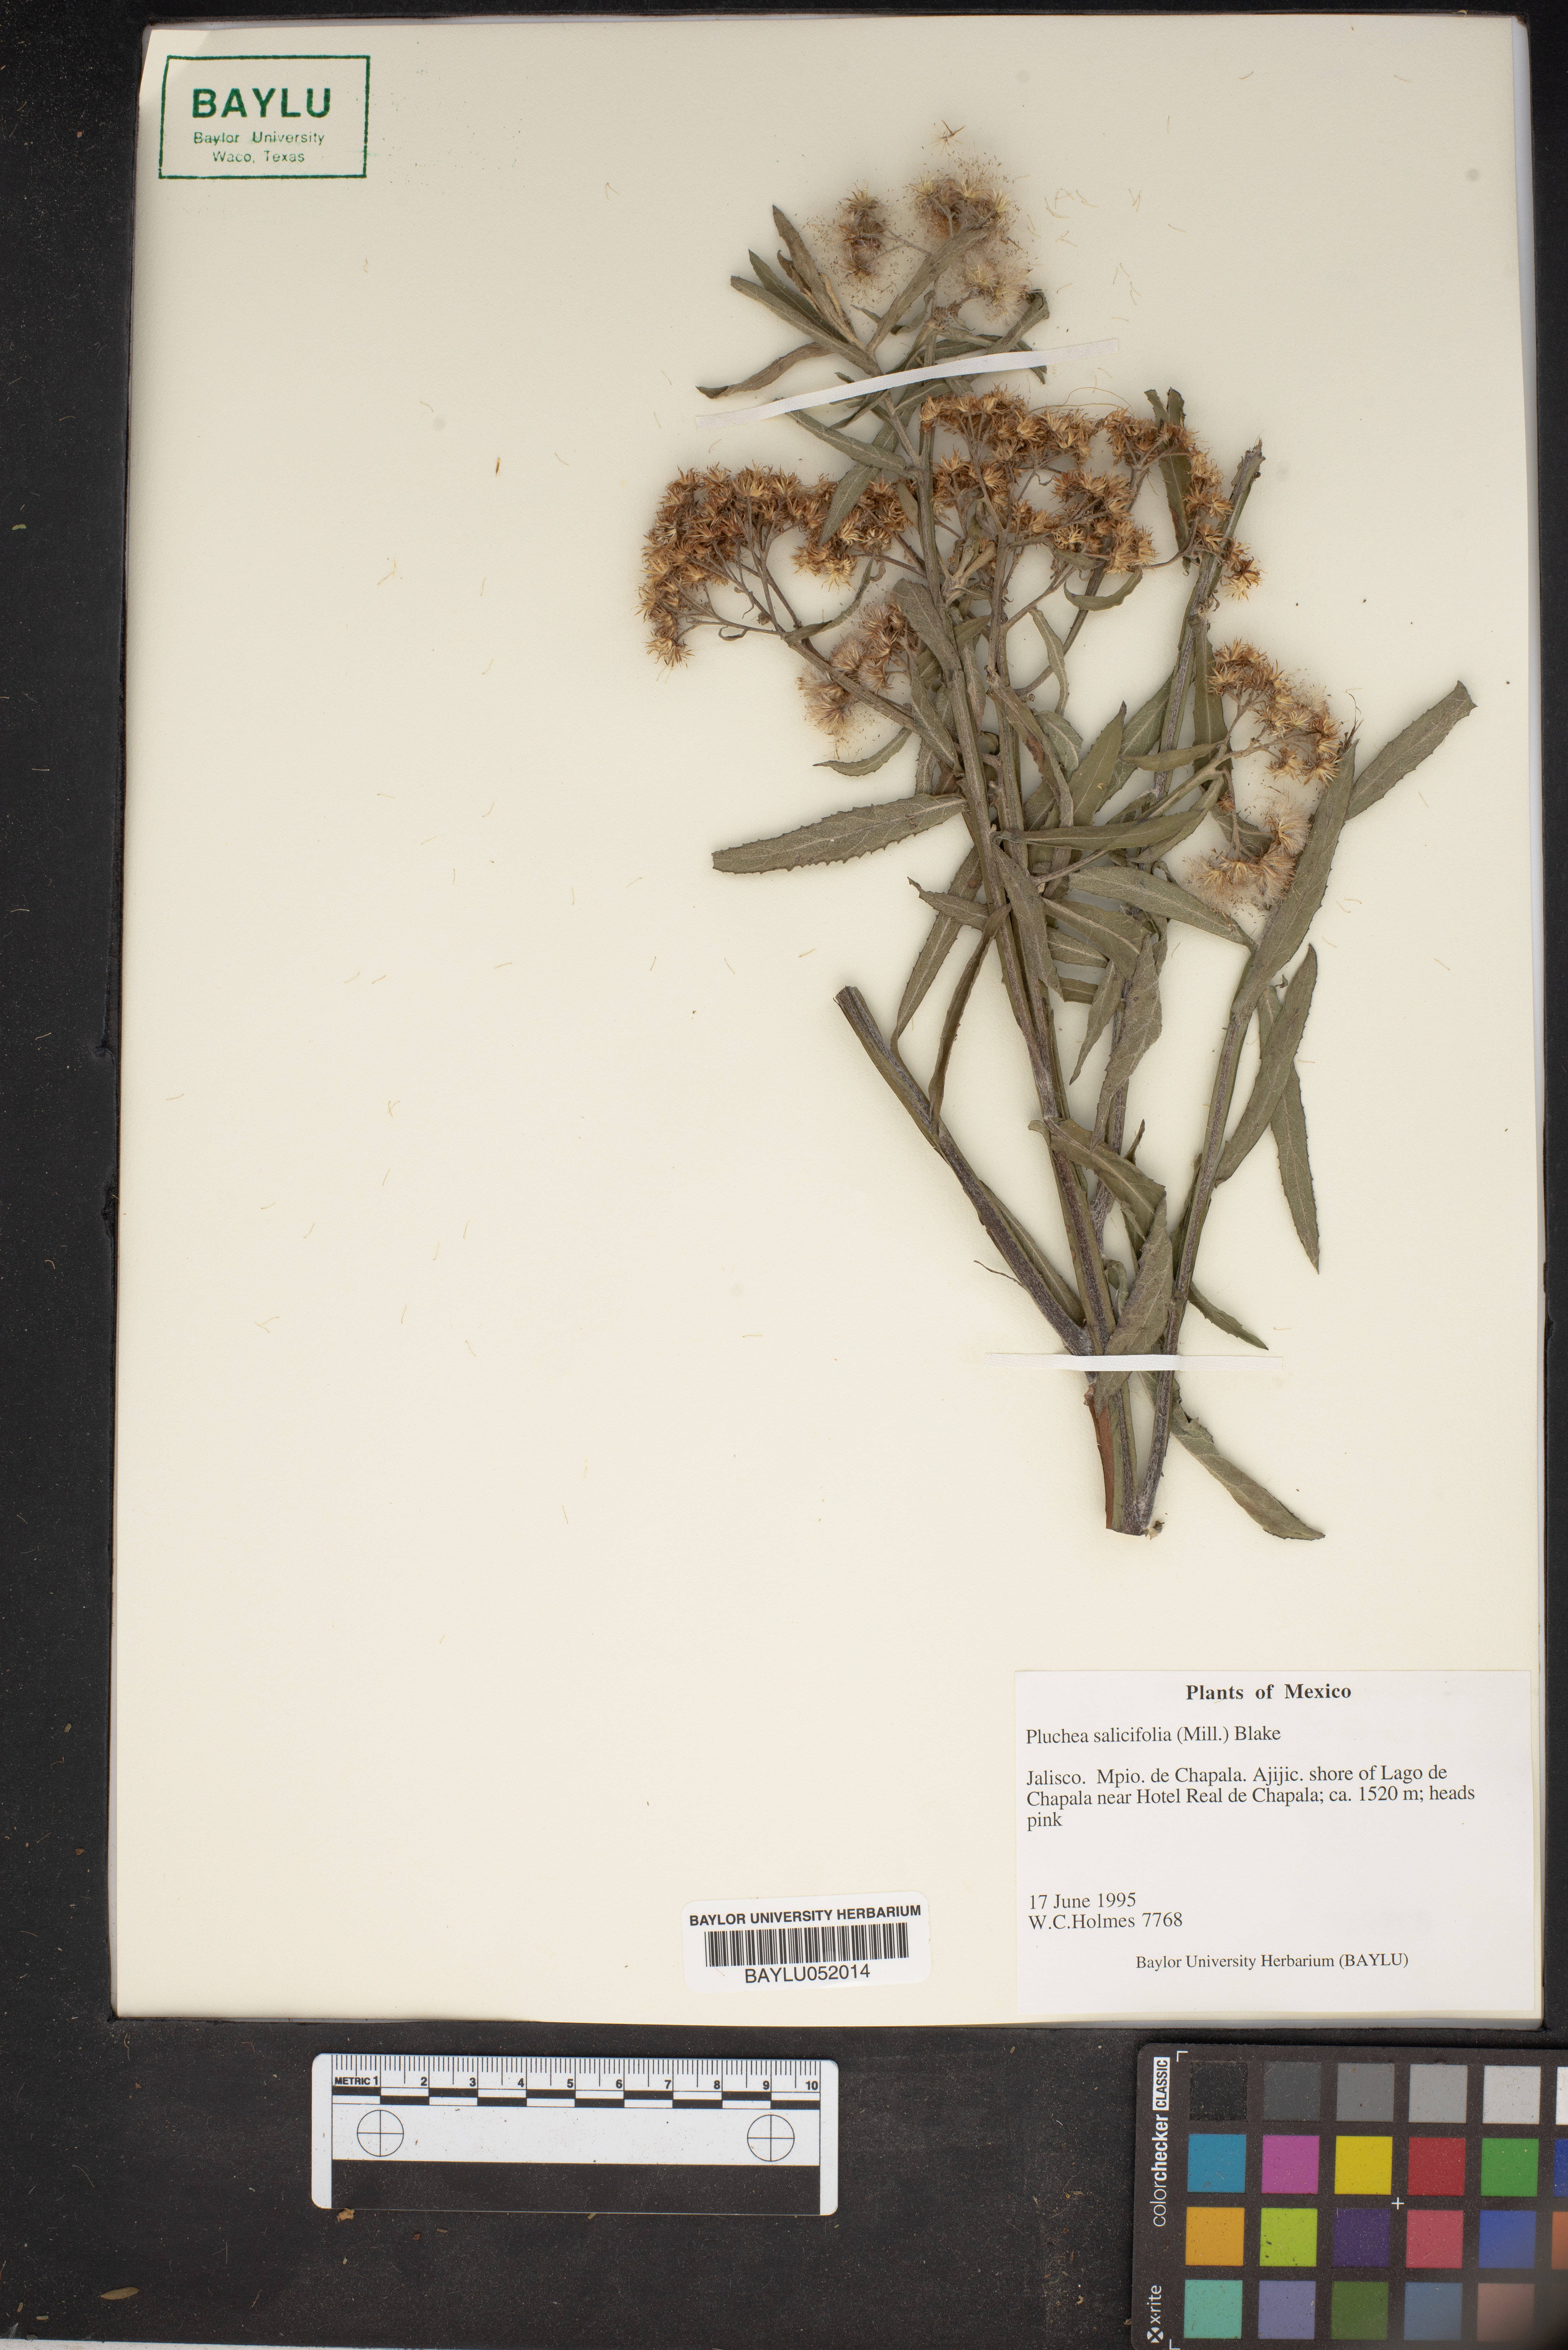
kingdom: Plantae
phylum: Tracheophyta
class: Magnoliopsida
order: Asterales
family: Asteraceae
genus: Pluchea
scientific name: Pluchea salicifolia
